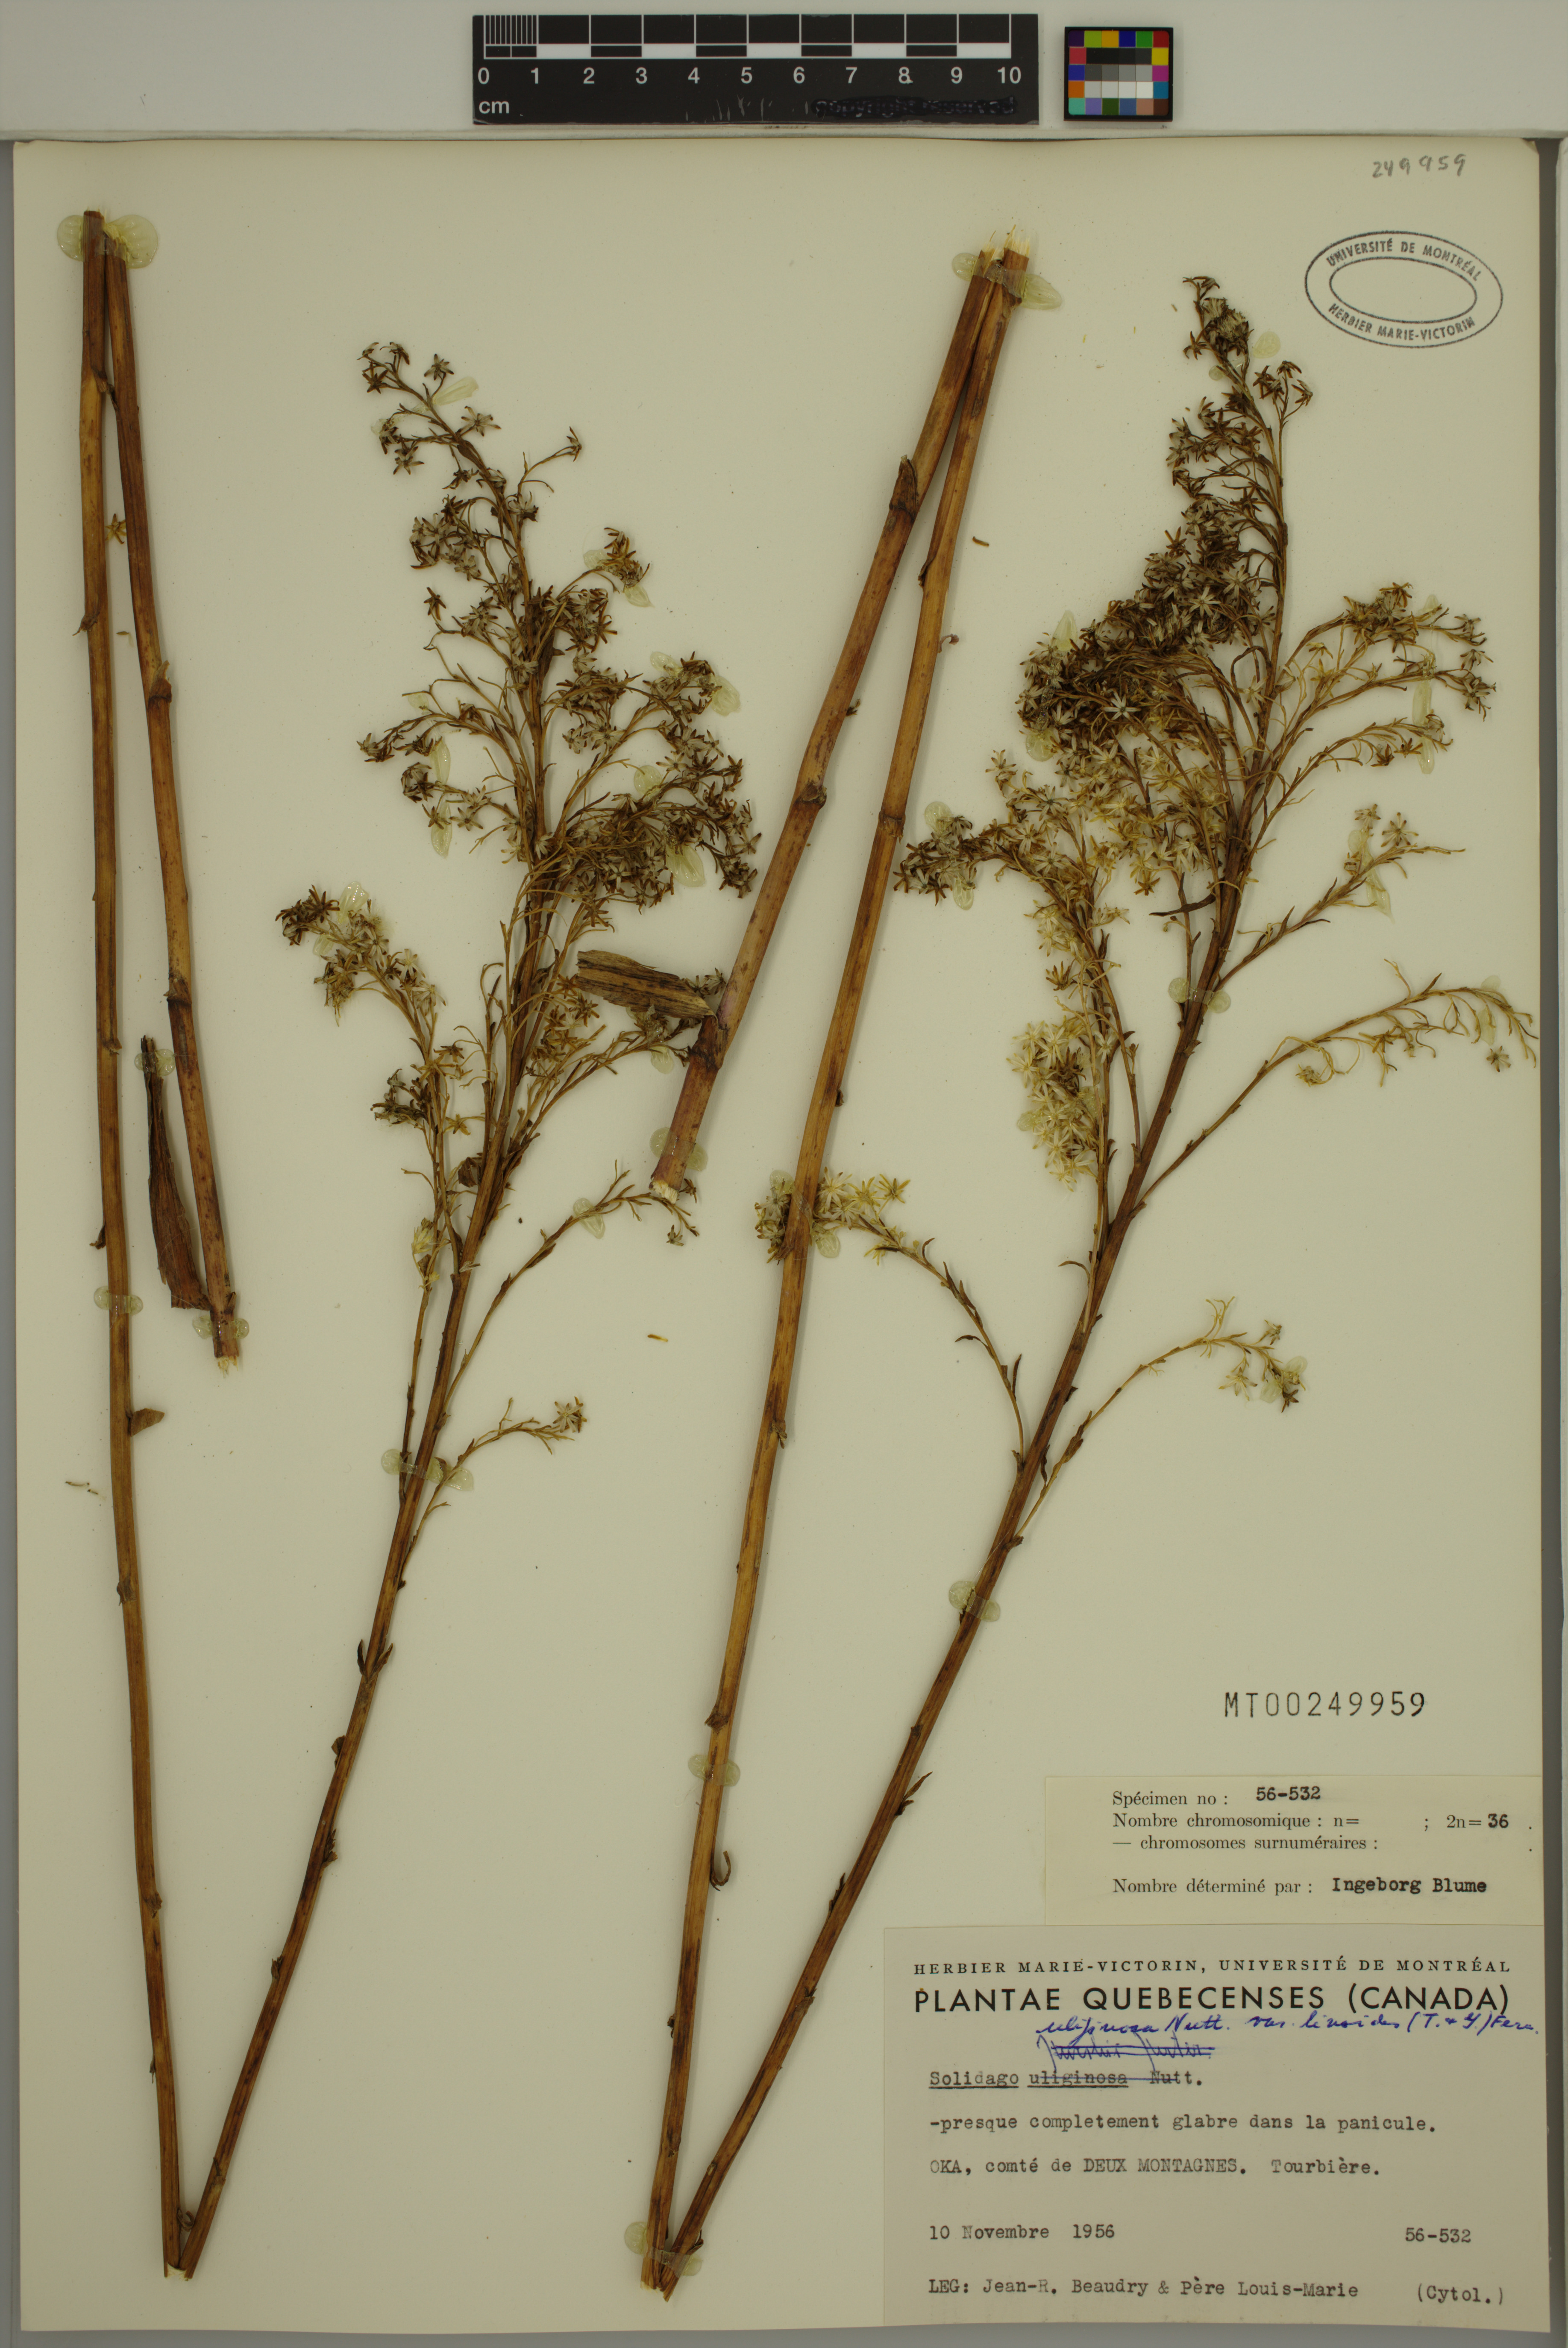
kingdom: Plantae
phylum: Tracheophyta
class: Magnoliopsida
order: Asterales
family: Asteraceae
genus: Solidago
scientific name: Solidago uliginosa
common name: Bog goldenrod
